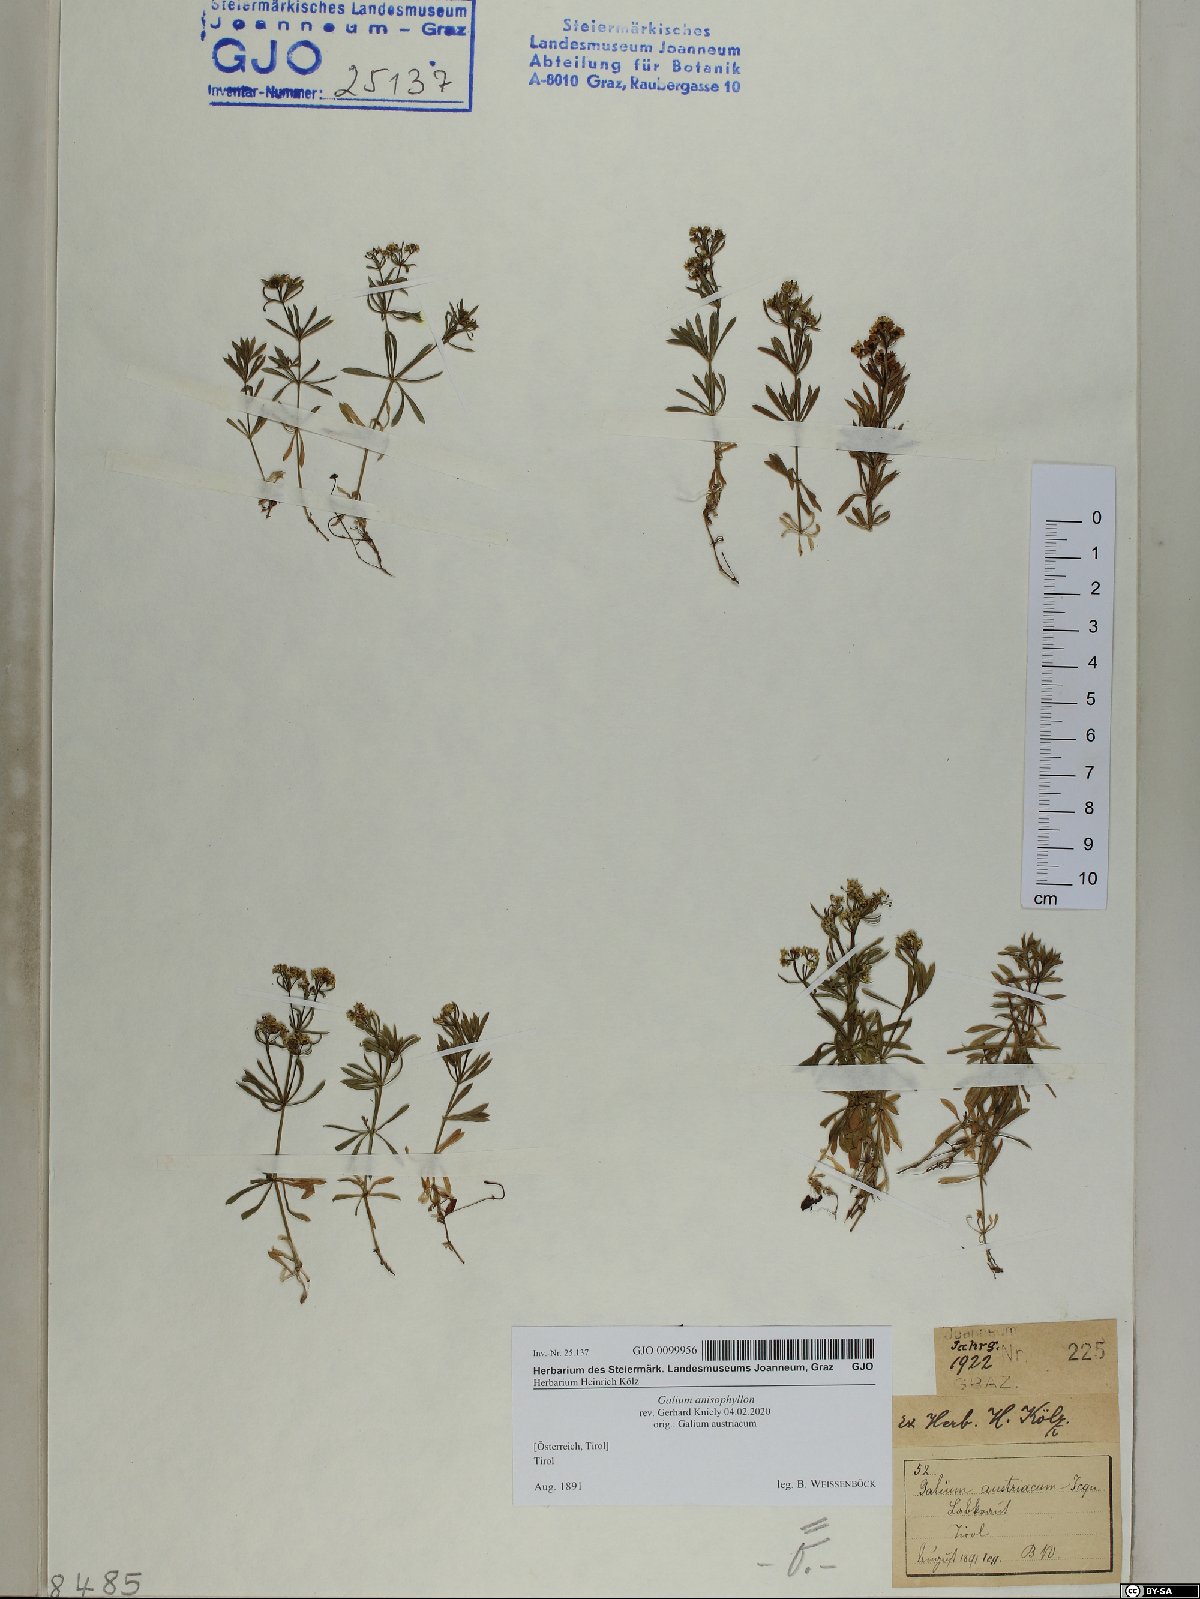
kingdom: Plantae
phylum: Tracheophyta
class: Magnoliopsida
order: Gentianales
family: Rubiaceae
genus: Galium
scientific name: Galium anisophyllon
